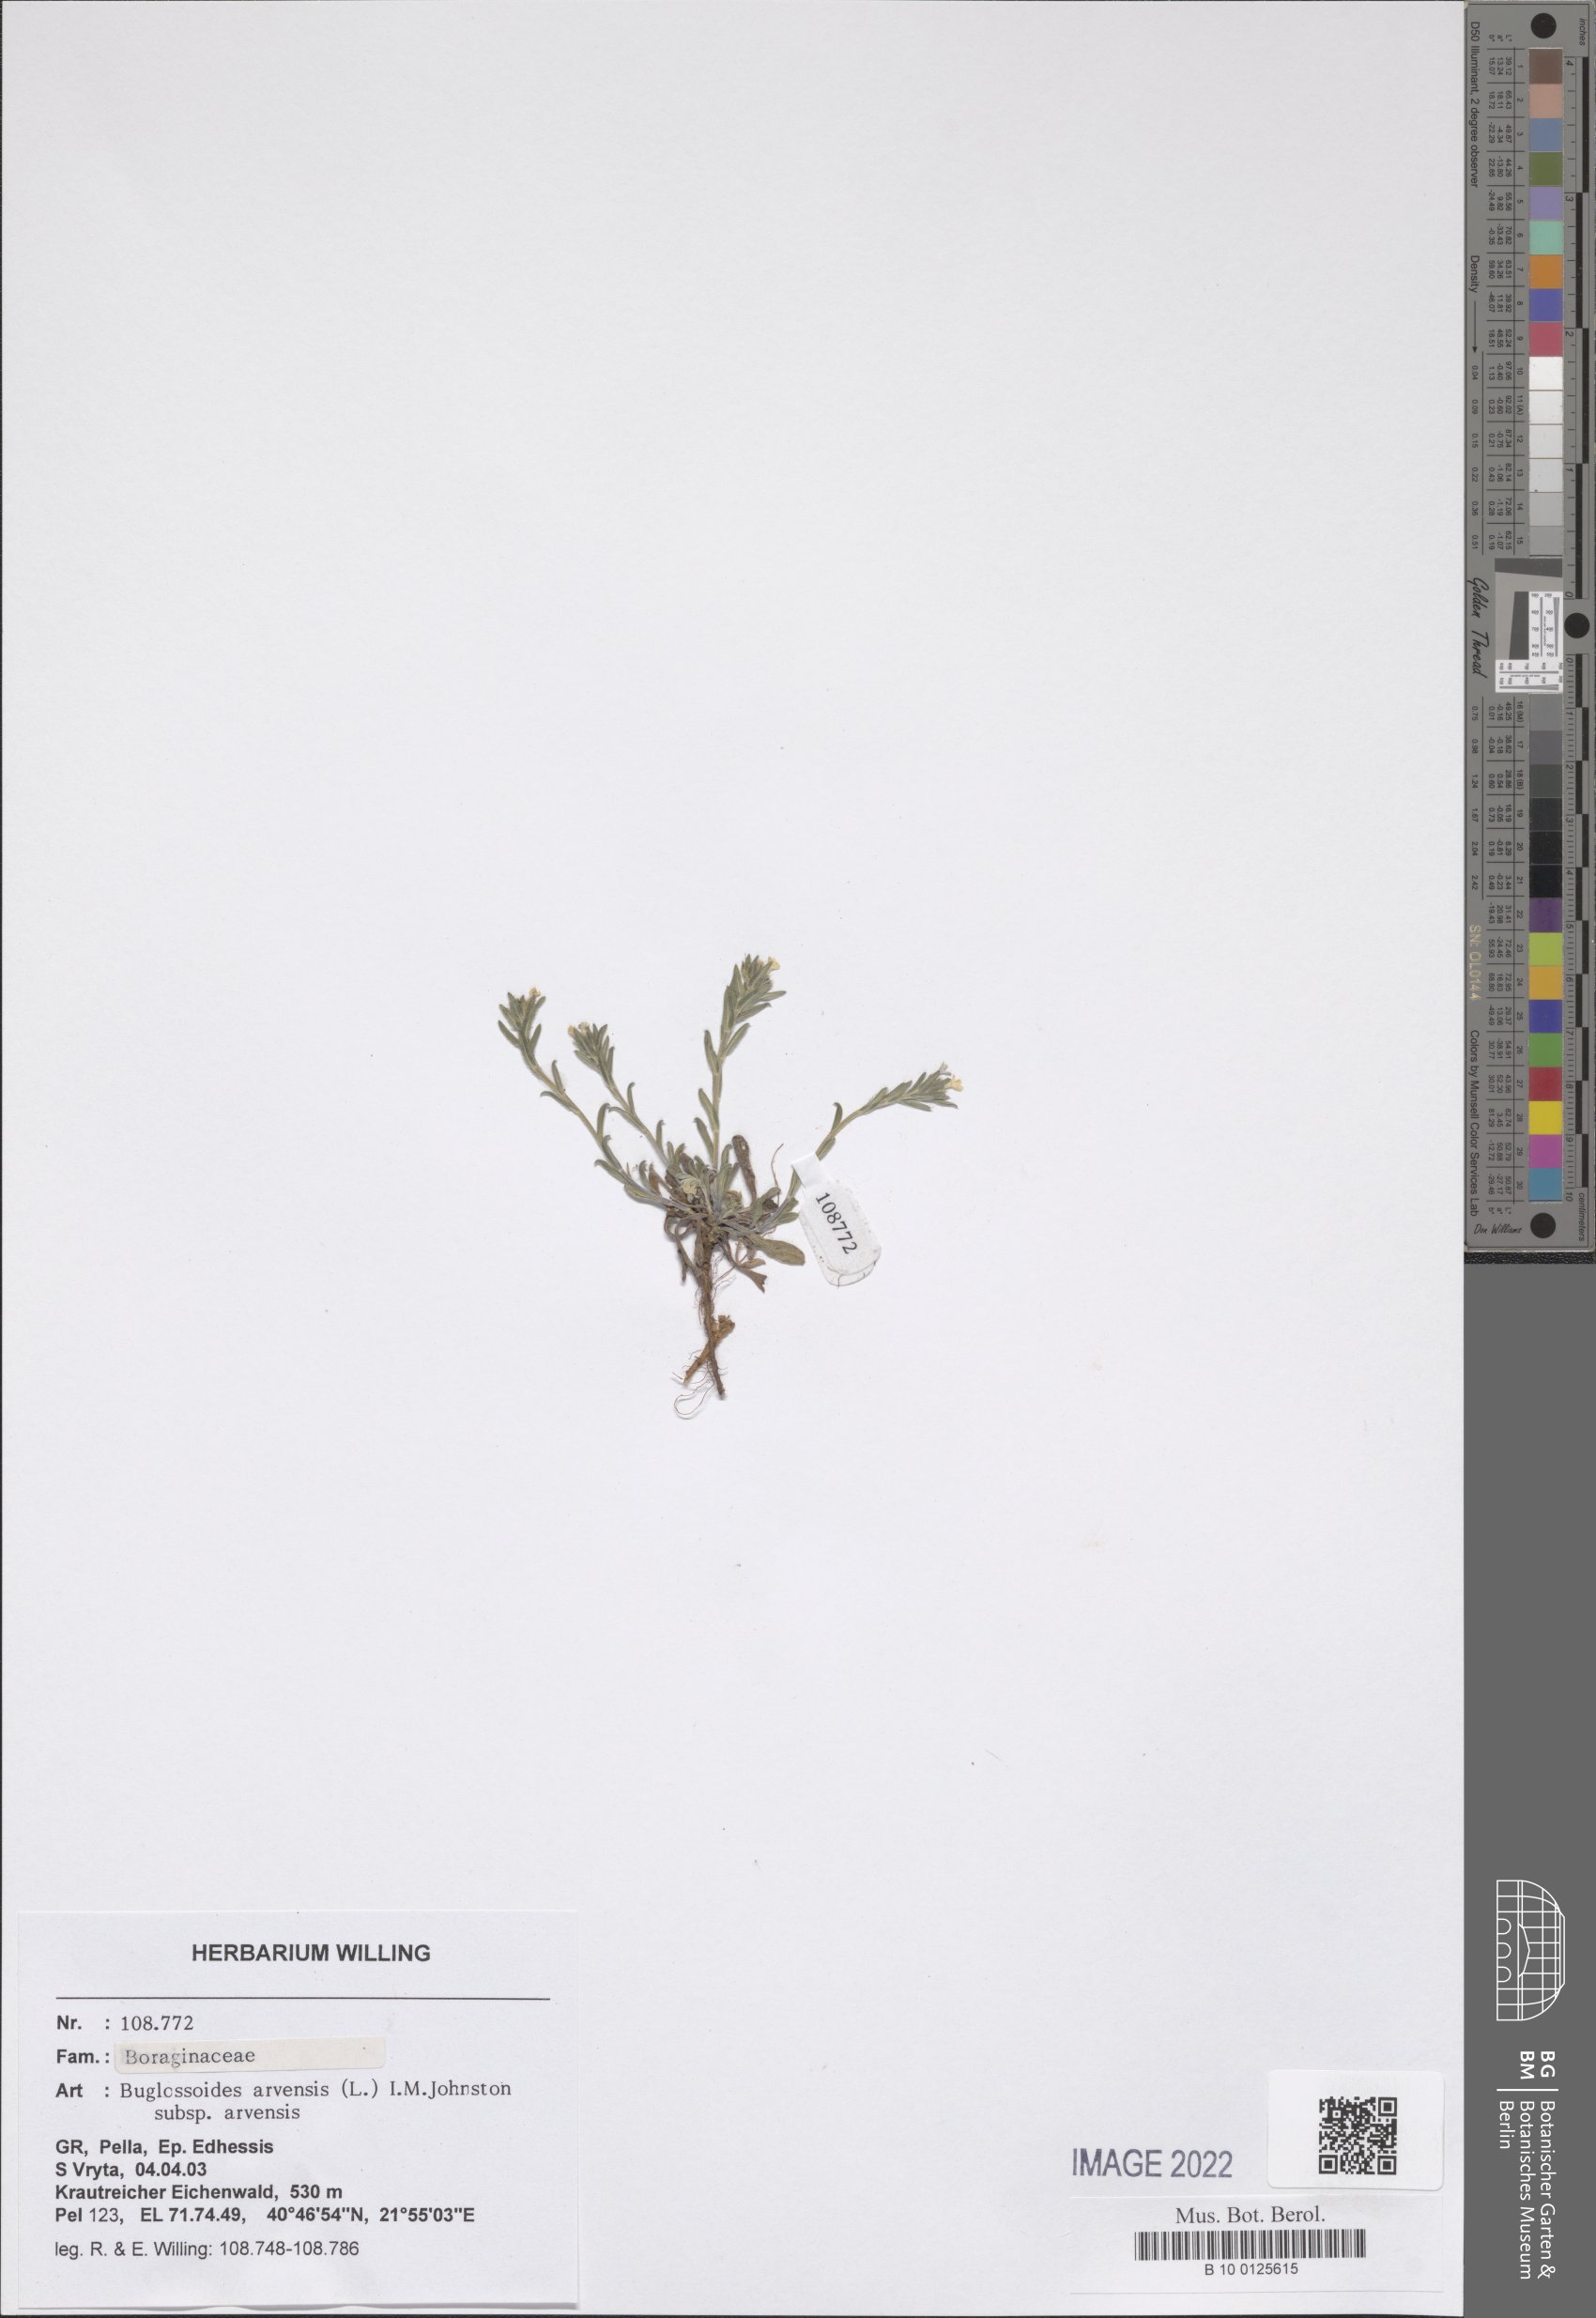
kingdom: Plantae
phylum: Tracheophyta
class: Magnoliopsida
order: Boraginales
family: Boraginaceae
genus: Buglossoides
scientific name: Buglossoides arvensis
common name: Corn gromwell
